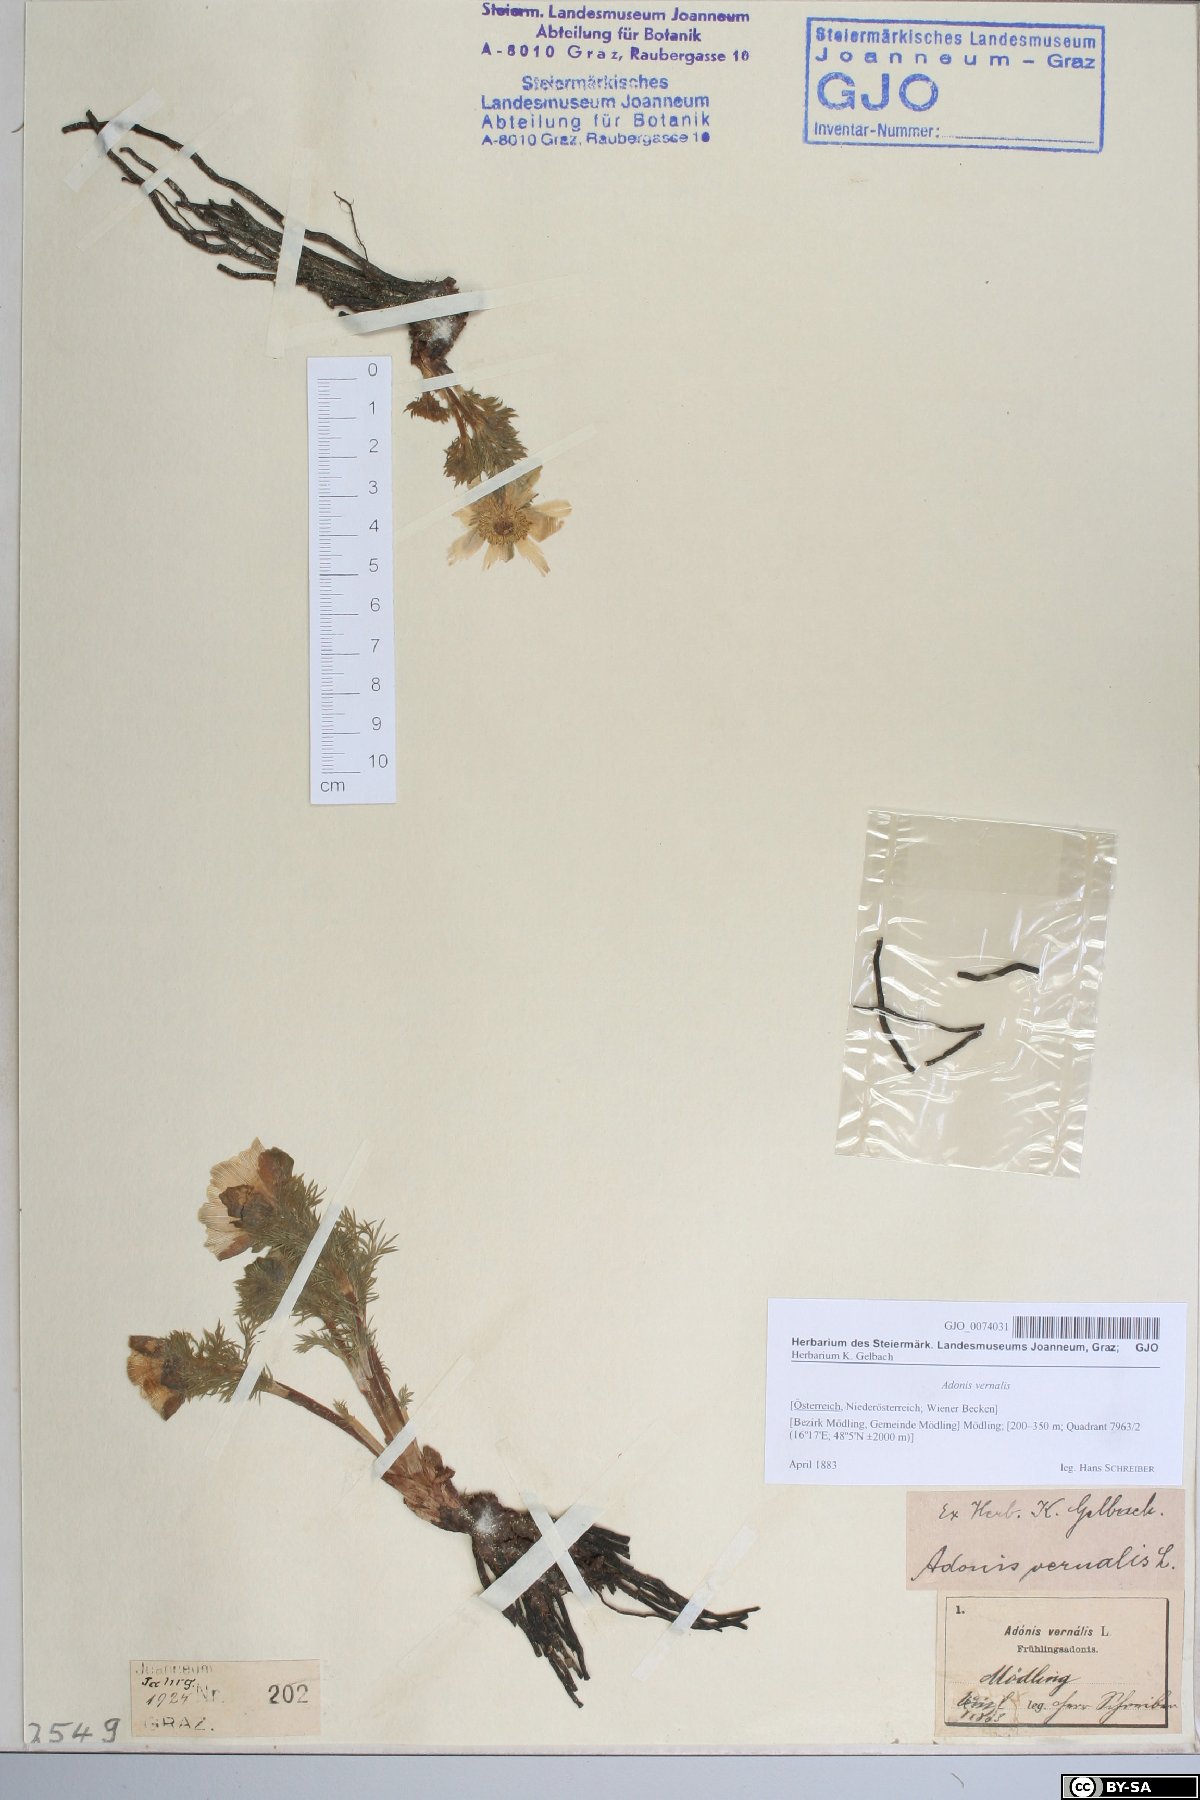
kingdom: Plantae
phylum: Tracheophyta
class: Magnoliopsida
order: Ranunculales
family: Ranunculaceae
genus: Adonis
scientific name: Adonis vernalis
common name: Yellow pheasants-eye
